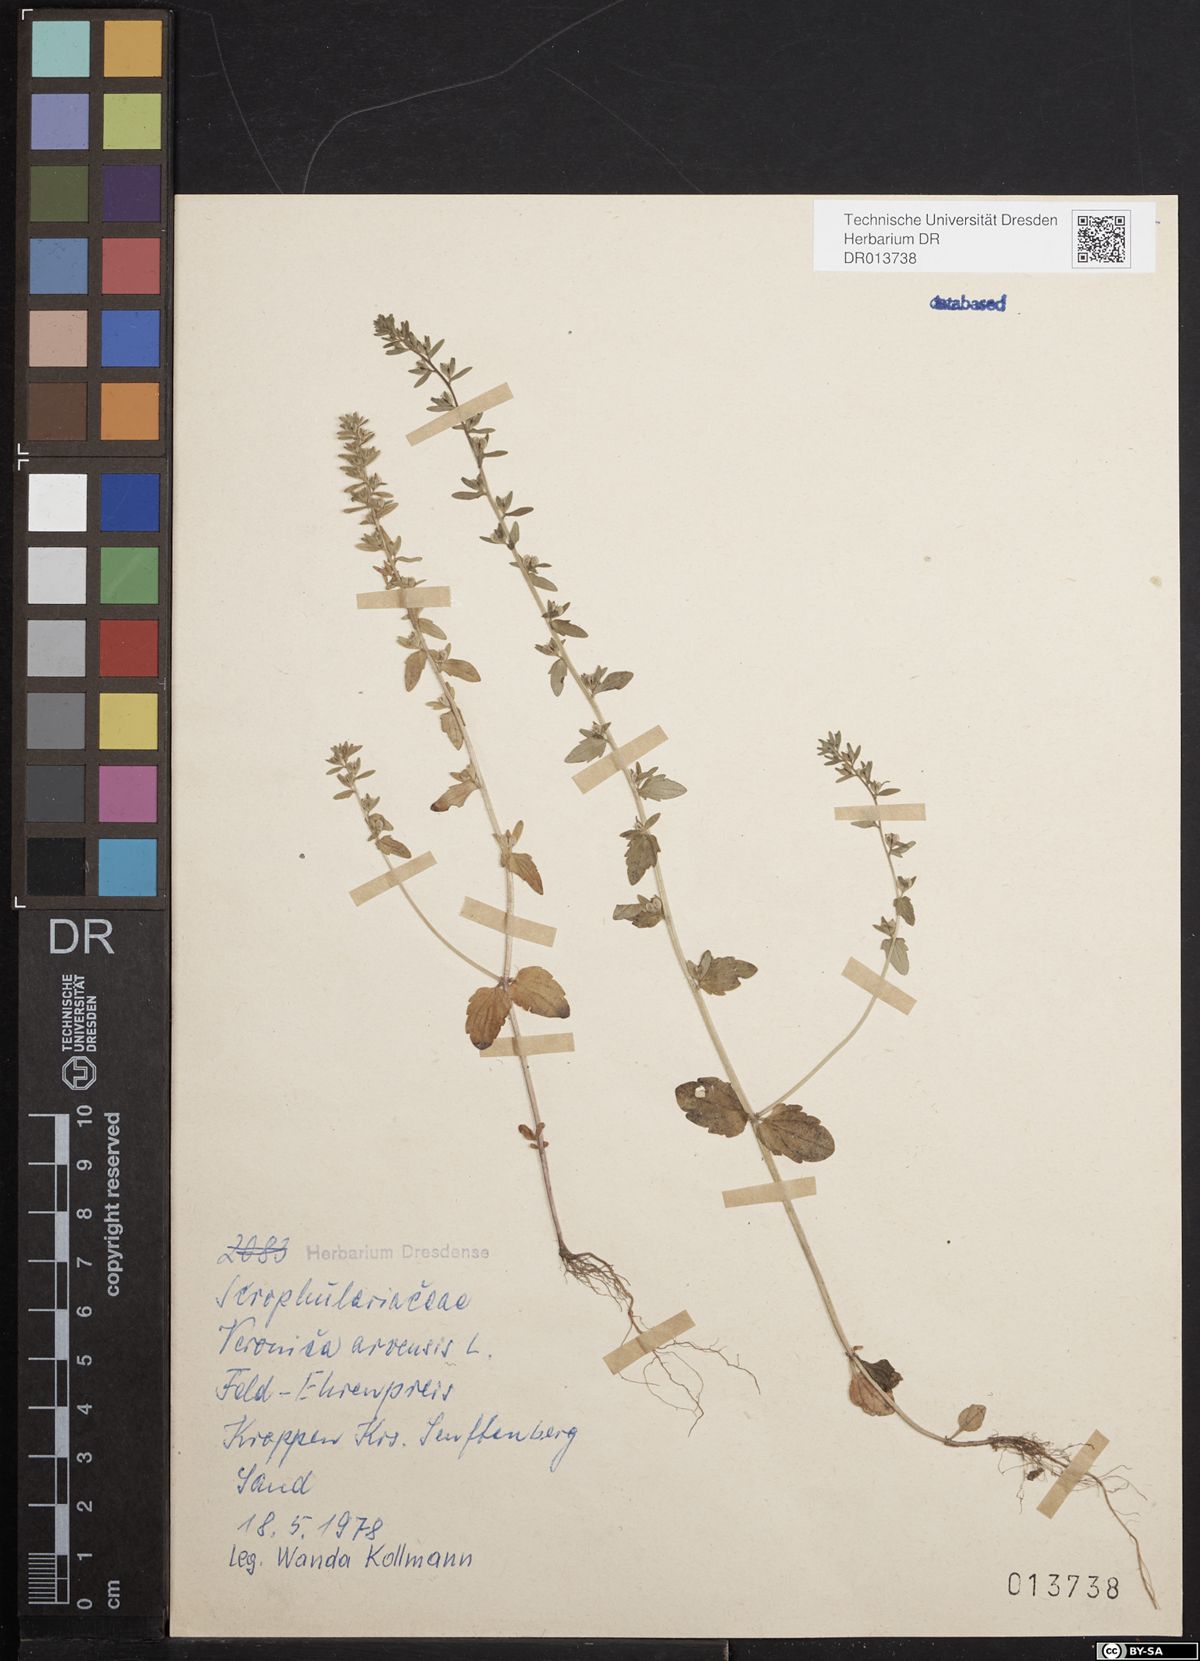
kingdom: Plantae
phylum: Tracheophyta
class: Magnoliopsida
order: Lamiales
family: Plantaginaceae
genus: Veronica
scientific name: Veronica arvensis
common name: Corn speedwell
